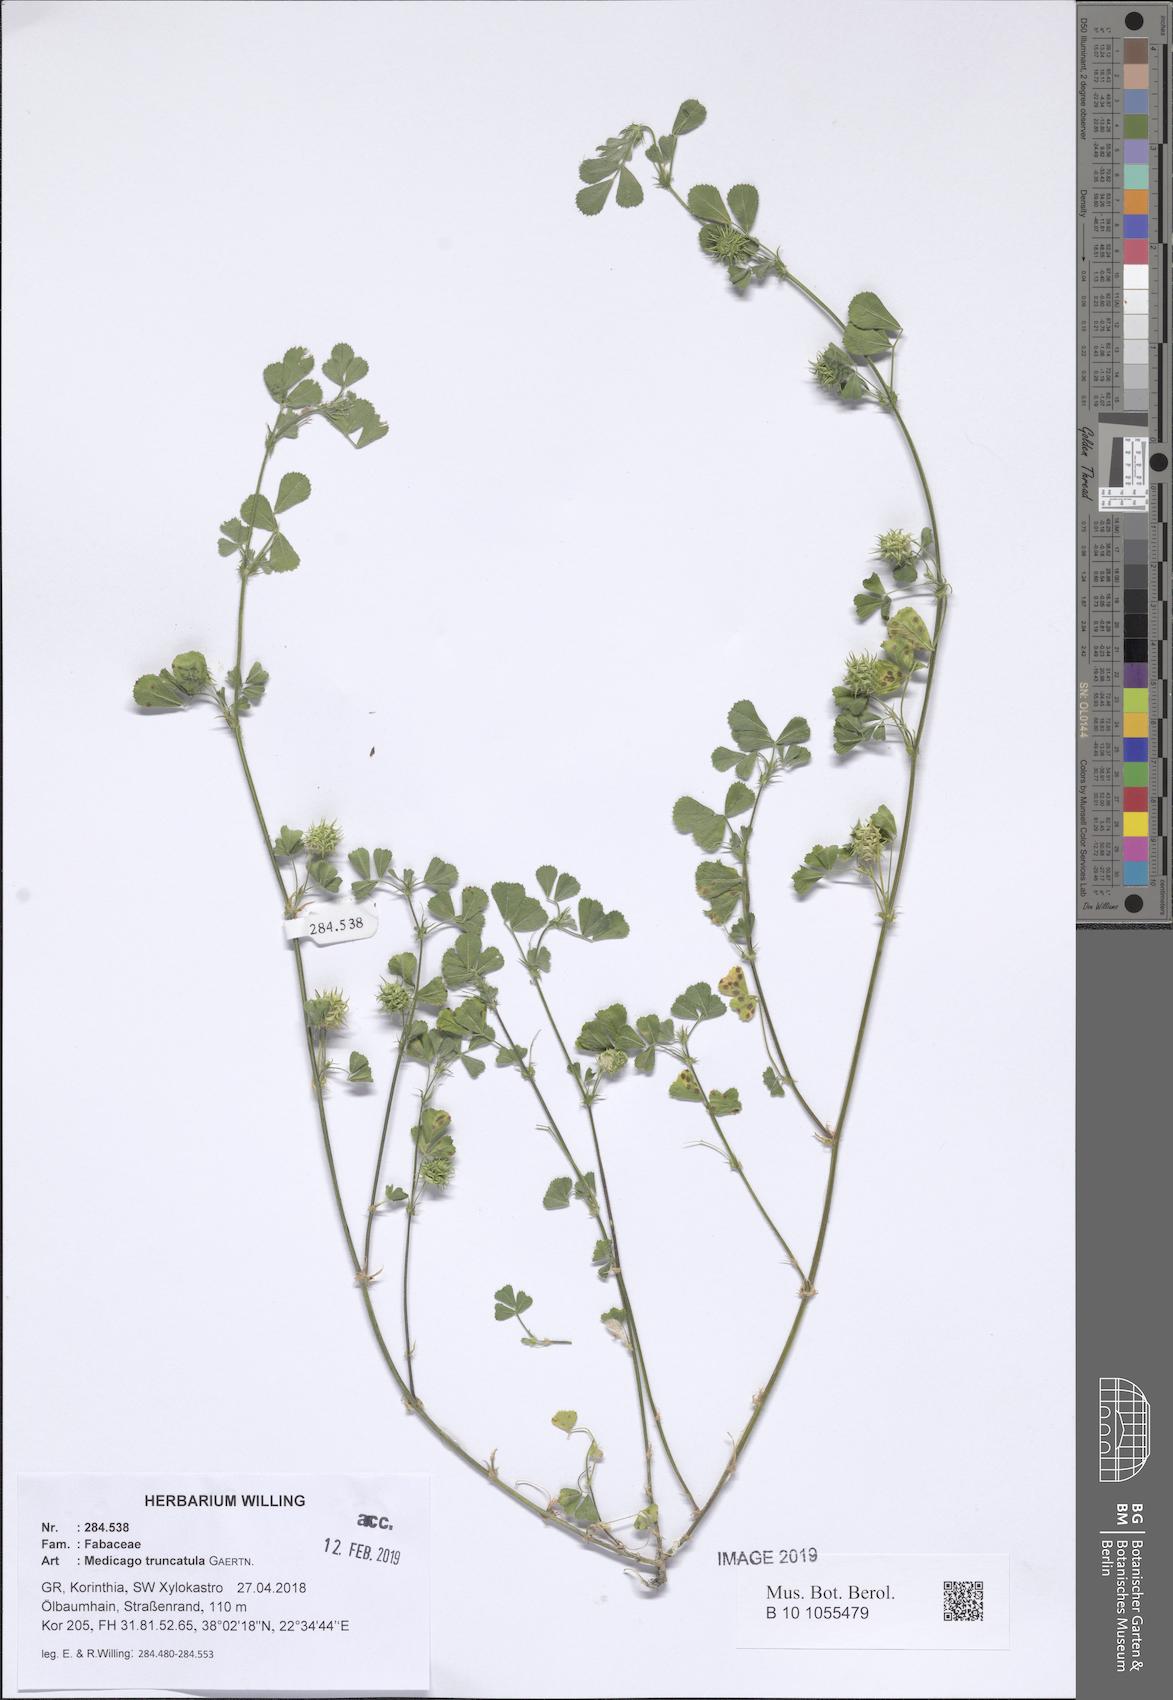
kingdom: Plantae
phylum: Tracheophyta
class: Magnoliopsida
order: Fabales
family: Fabaceae
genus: Medicago
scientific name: Medicago truncatula
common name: Strong-spined medick
